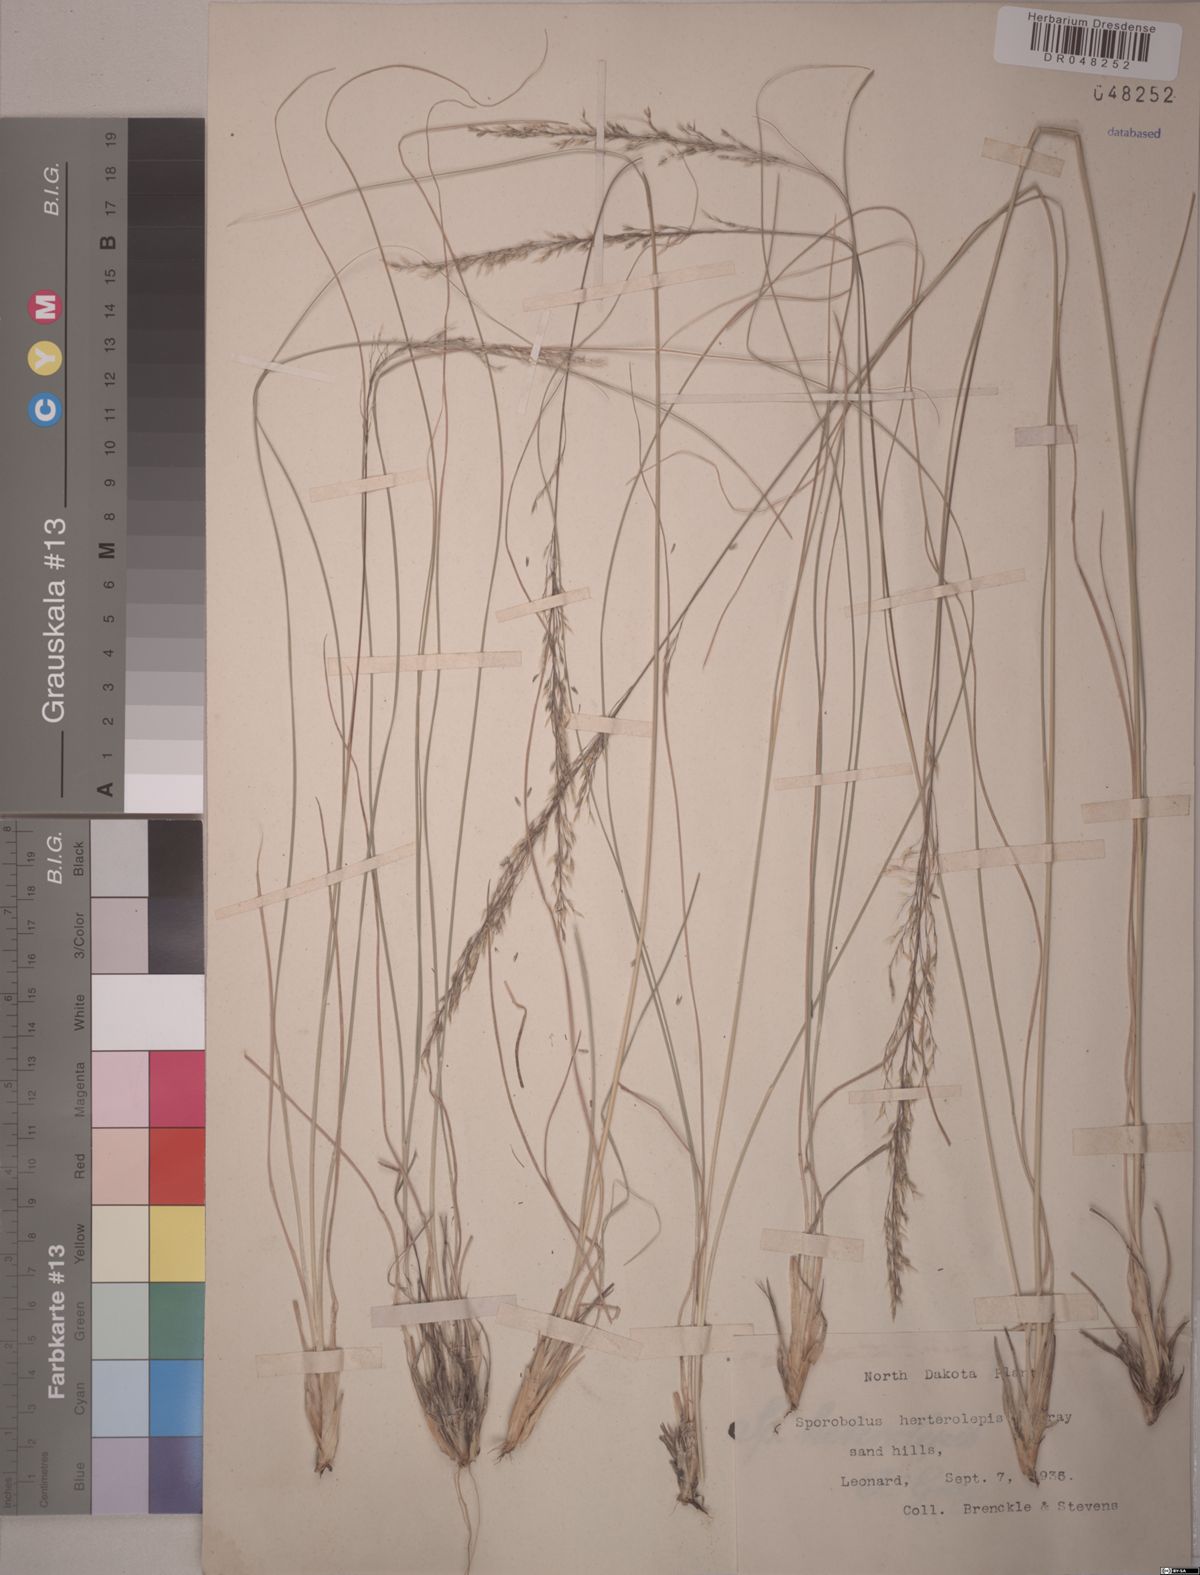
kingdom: Plantae
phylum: Tracheophyta
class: Liliopsida
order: Poales
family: Poaceae
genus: Sporobolus
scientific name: Sporobolus heterolepis
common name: Prairie dropseed
